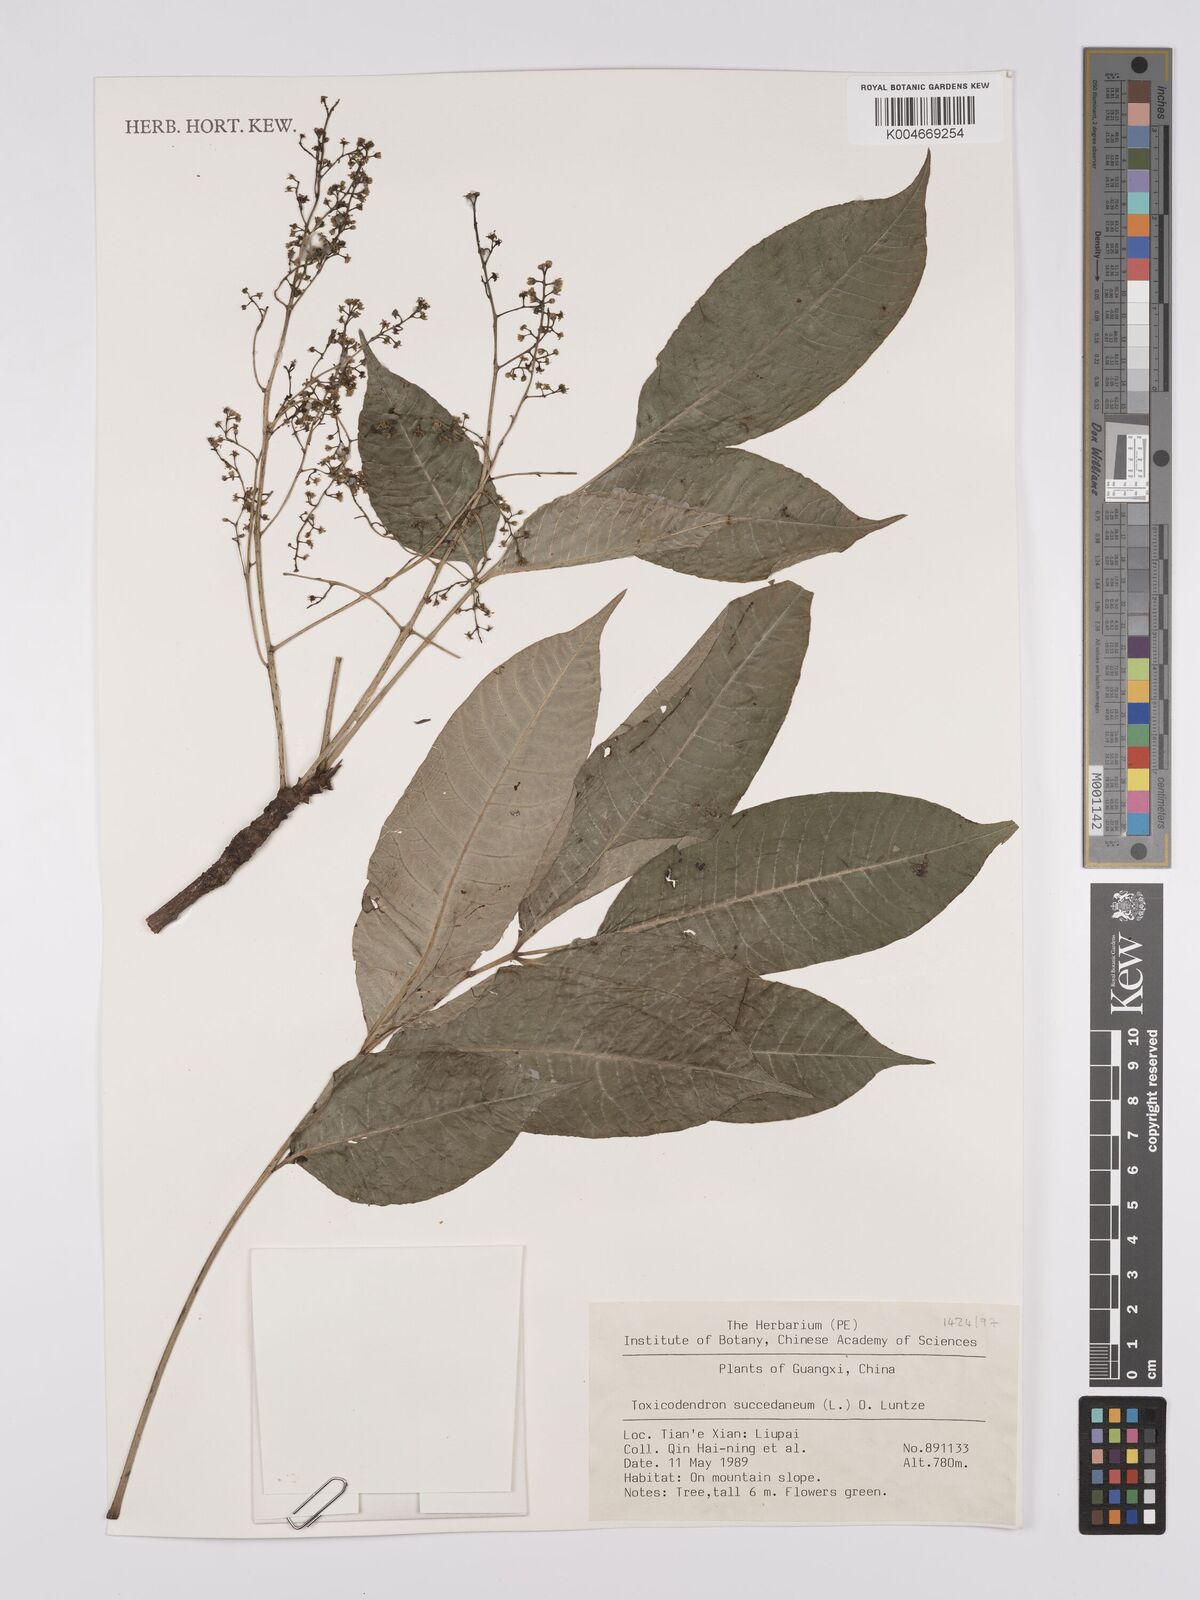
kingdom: Plantae
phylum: Tracheophyta
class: Magnoliopsida
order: Sapindales
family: Anacardiaceae
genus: Toxicodendron
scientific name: Toxicodendron succedaneum
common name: Wax tree
